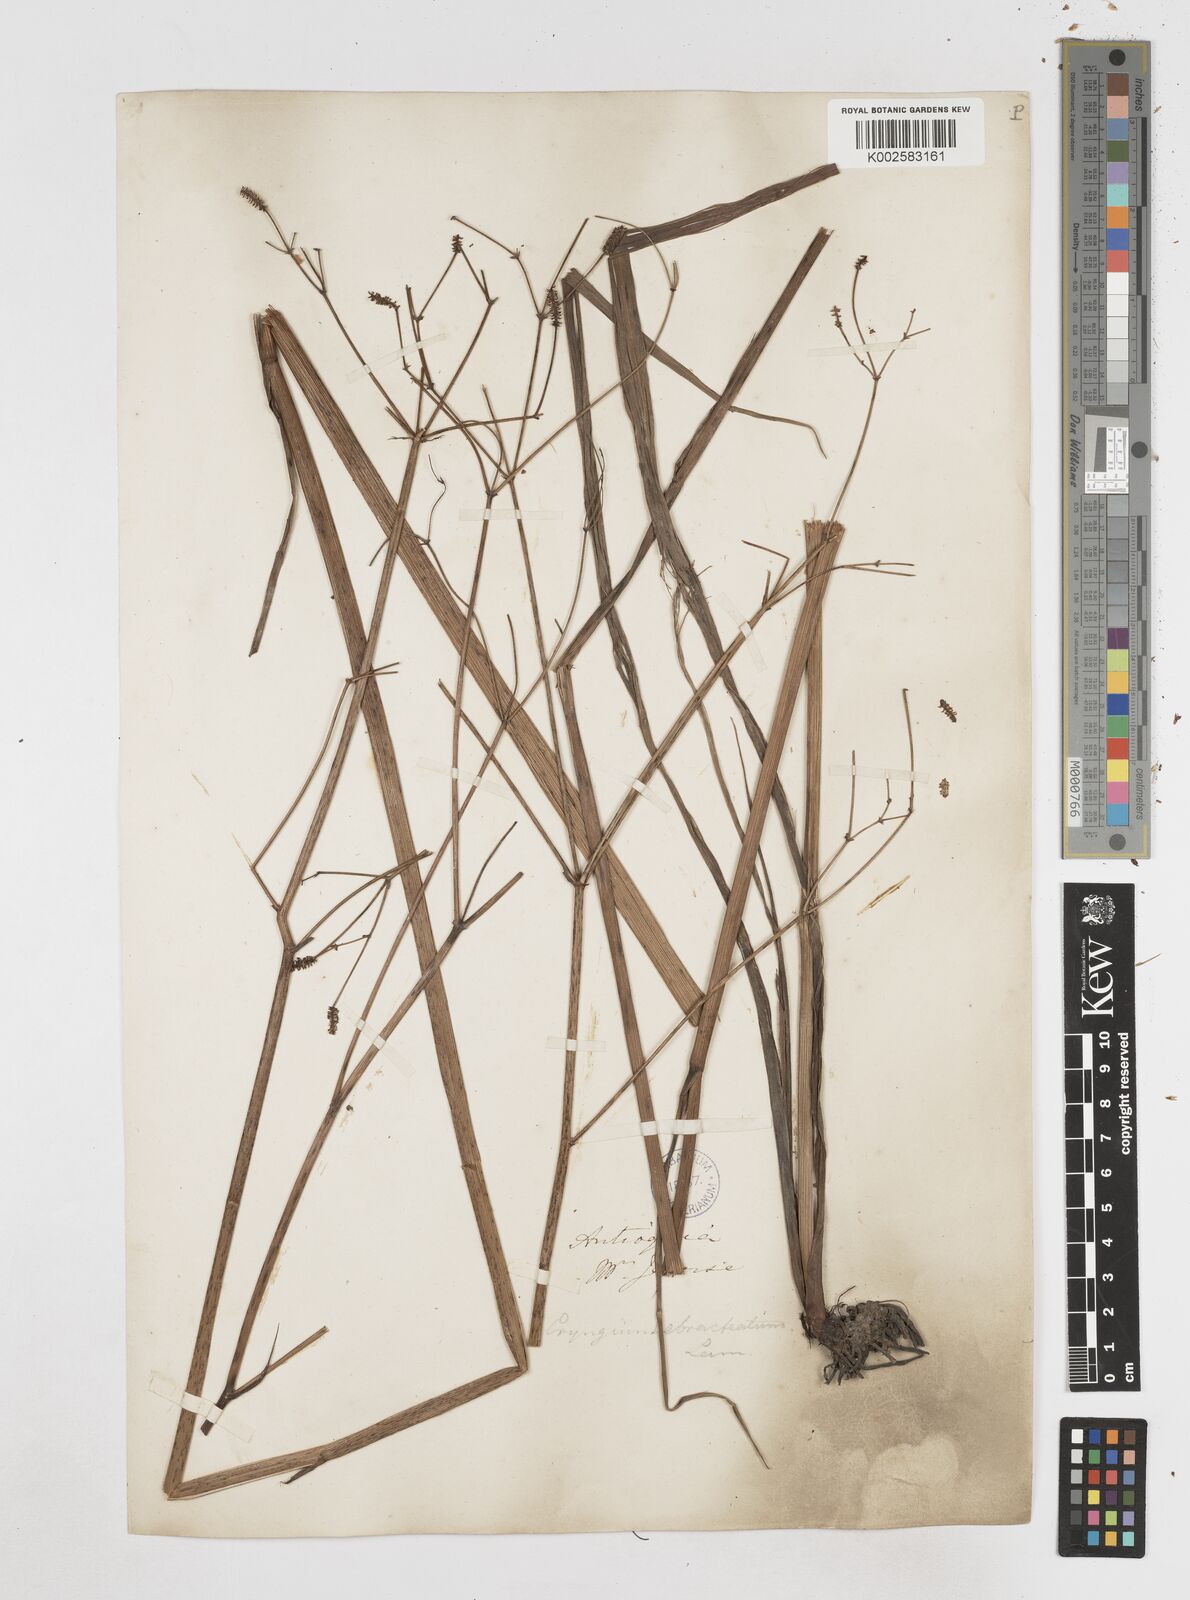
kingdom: Plantae
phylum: Tracheophyta
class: Magnoliopsida
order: Apiales
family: Apiaceae
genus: Eryngium
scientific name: Eryngium ebracteatum
